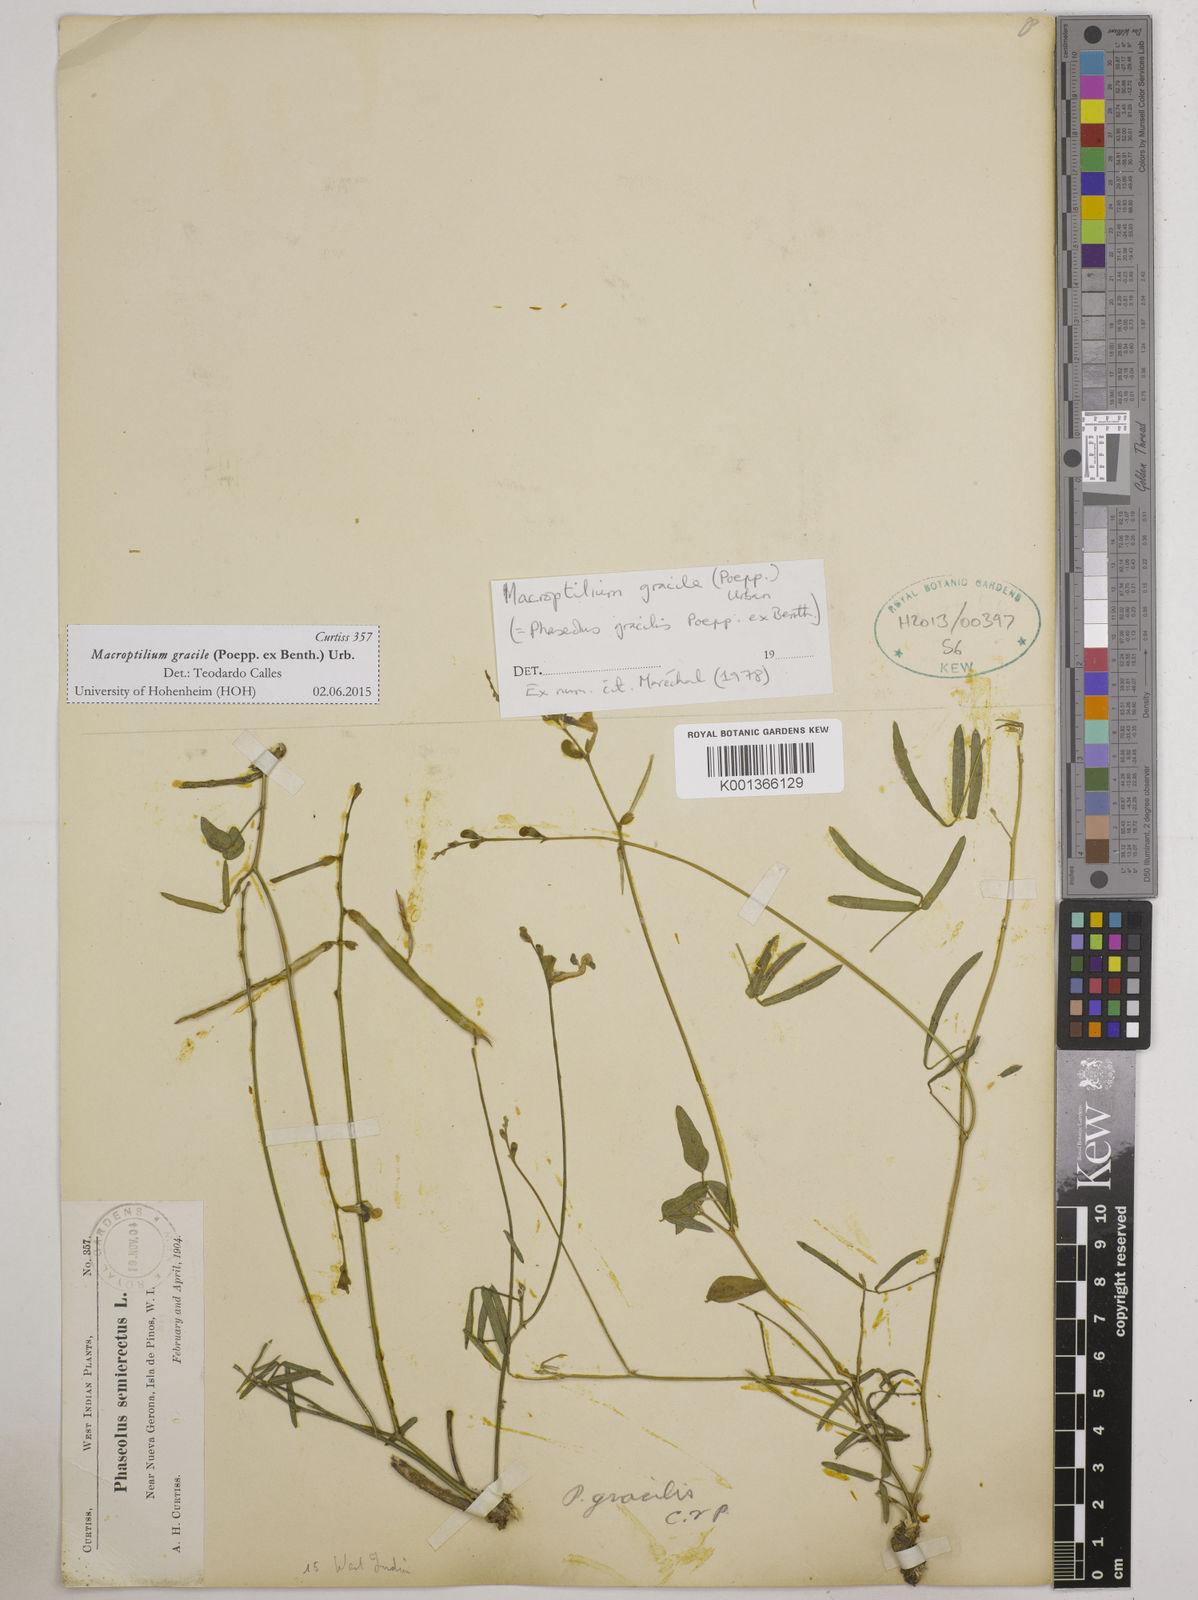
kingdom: Plantae
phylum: Tracheophyta
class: Magnoliopsida
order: Fabales
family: Fabaceae
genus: Macroptilium
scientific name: Macroptilium gracile
